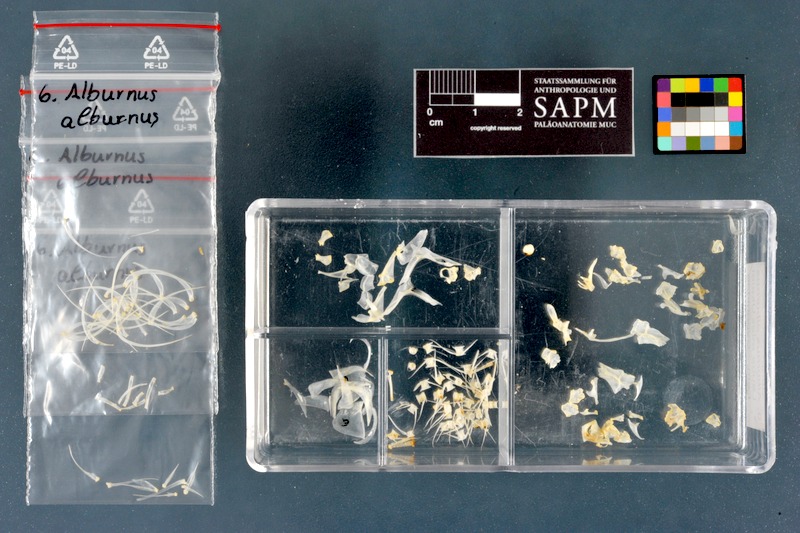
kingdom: Animalia
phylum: Chordata
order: Cypriniformes
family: Cyprinidae
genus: Alburnus
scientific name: Alburnus alburnus
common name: Bleak
